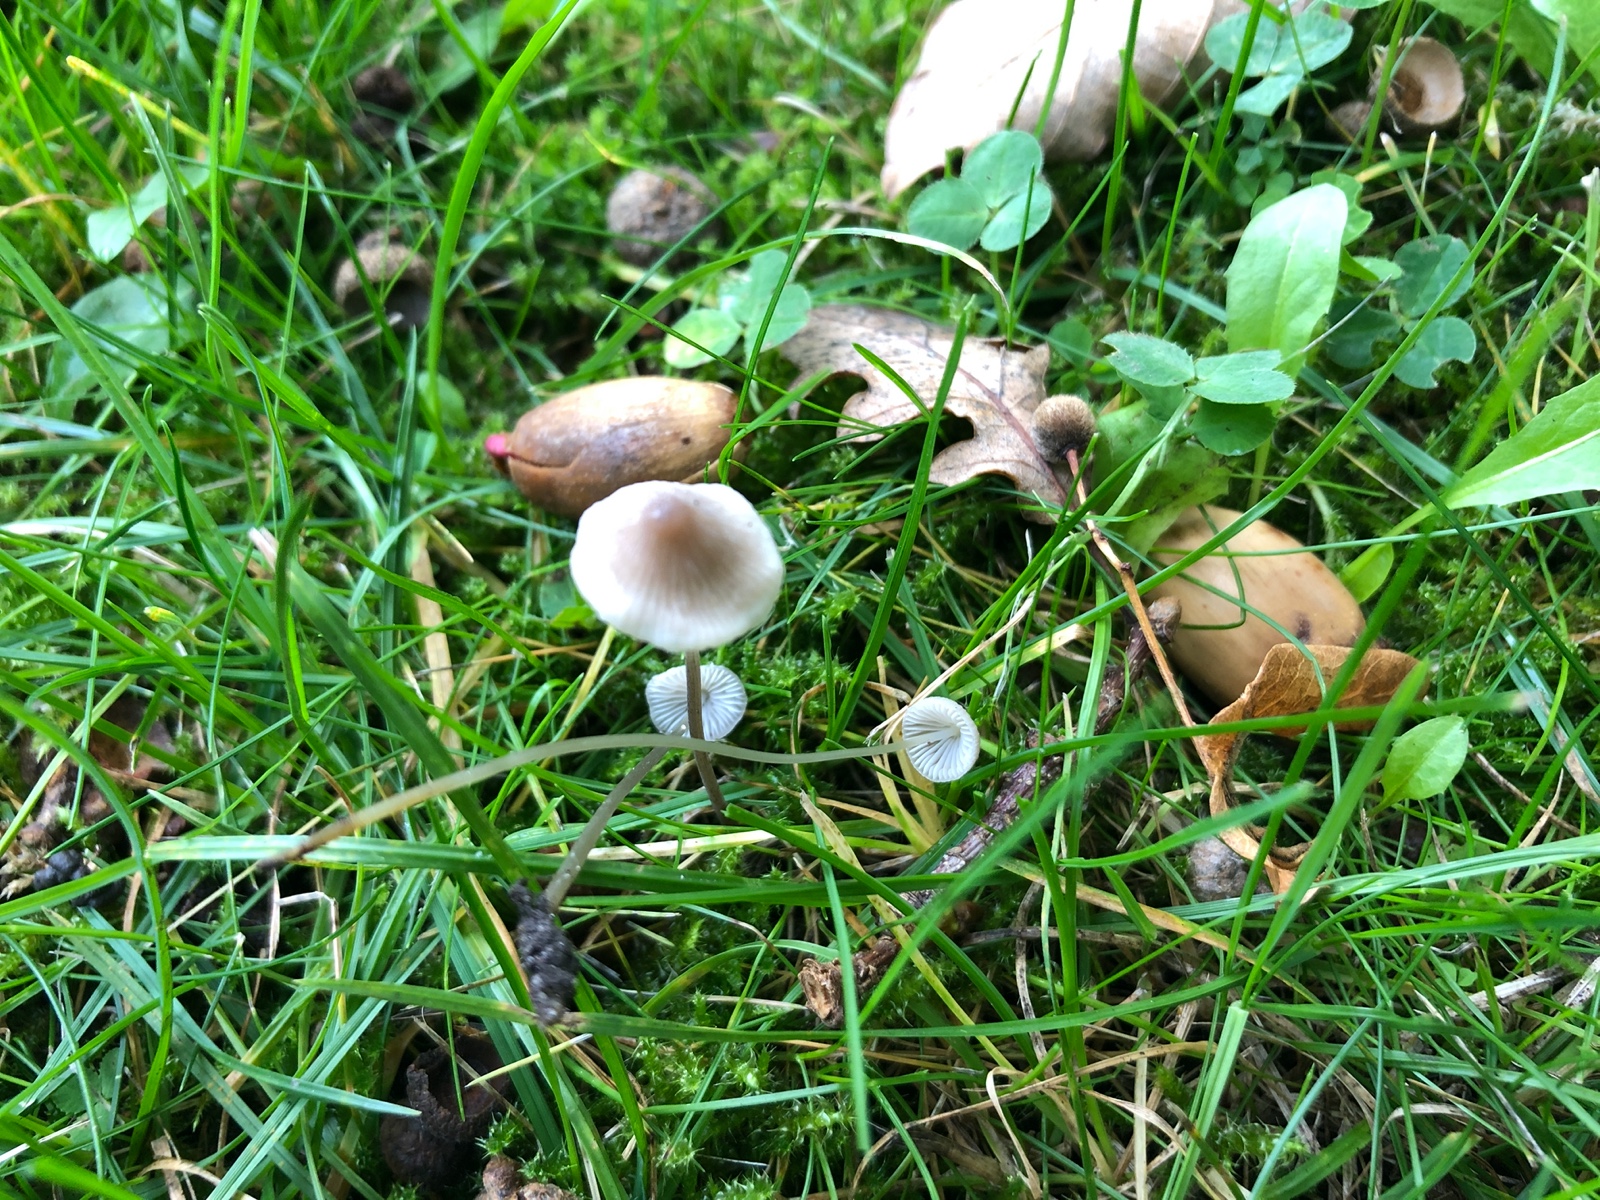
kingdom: Fungi
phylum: Basidiomycota
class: Agaricomycetes
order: Agaricales
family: Mycenaceae
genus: Mycena
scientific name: Mycena
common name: huesvamp
